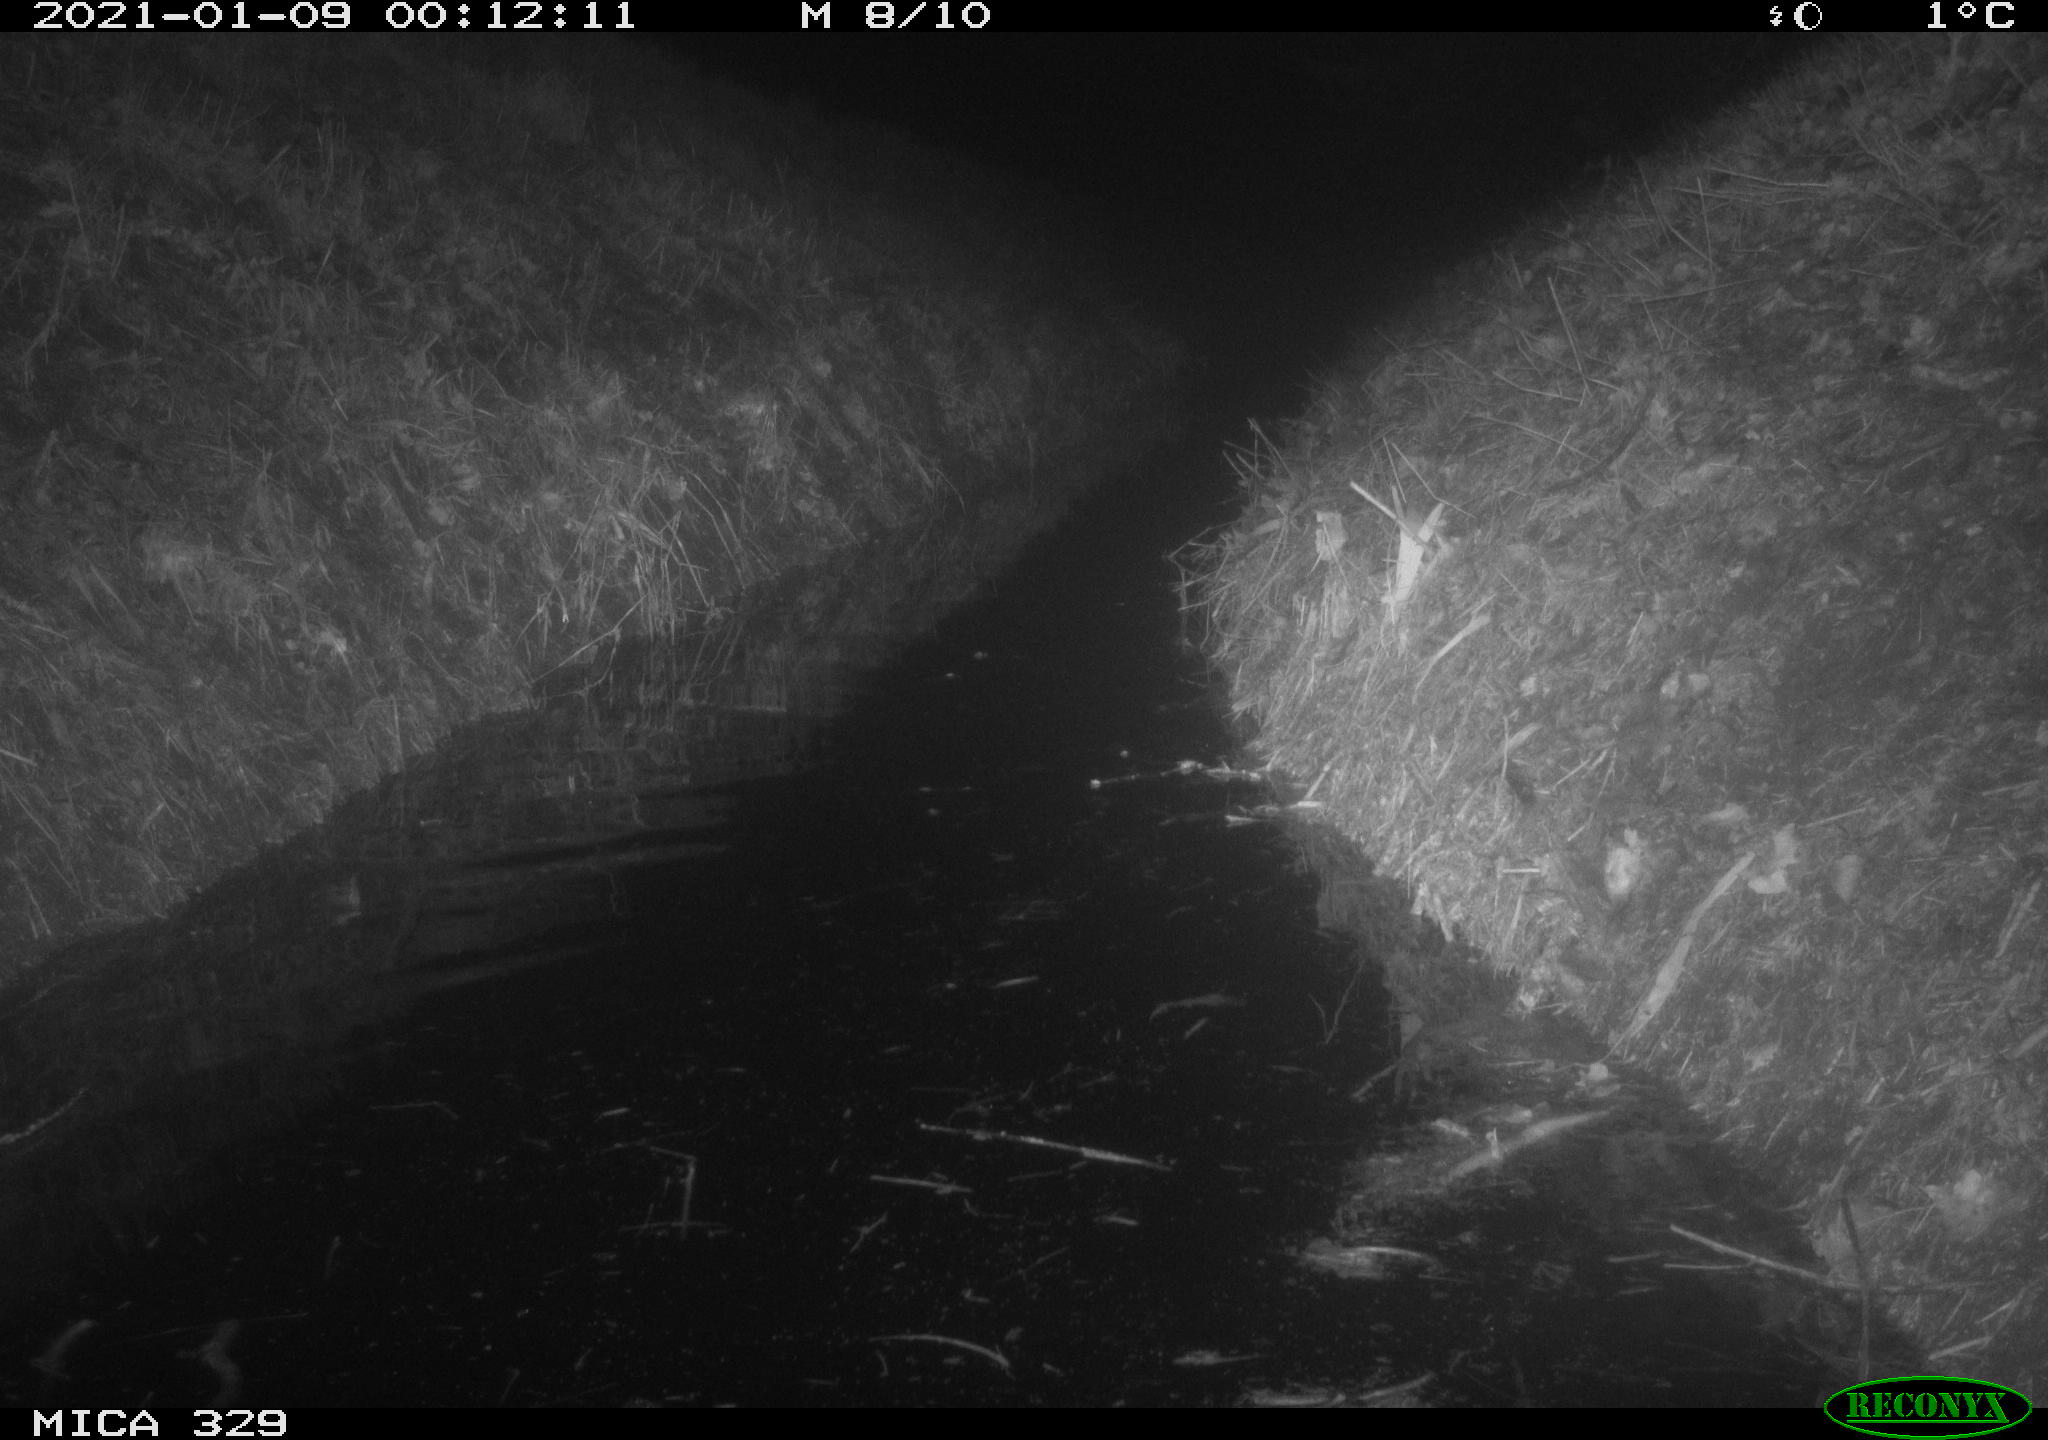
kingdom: Animalia
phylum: Chordata
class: Mammalia
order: Rodentia
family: Myocastoridae
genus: Myocastor
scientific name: Myocastor coypus
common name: Coypu
